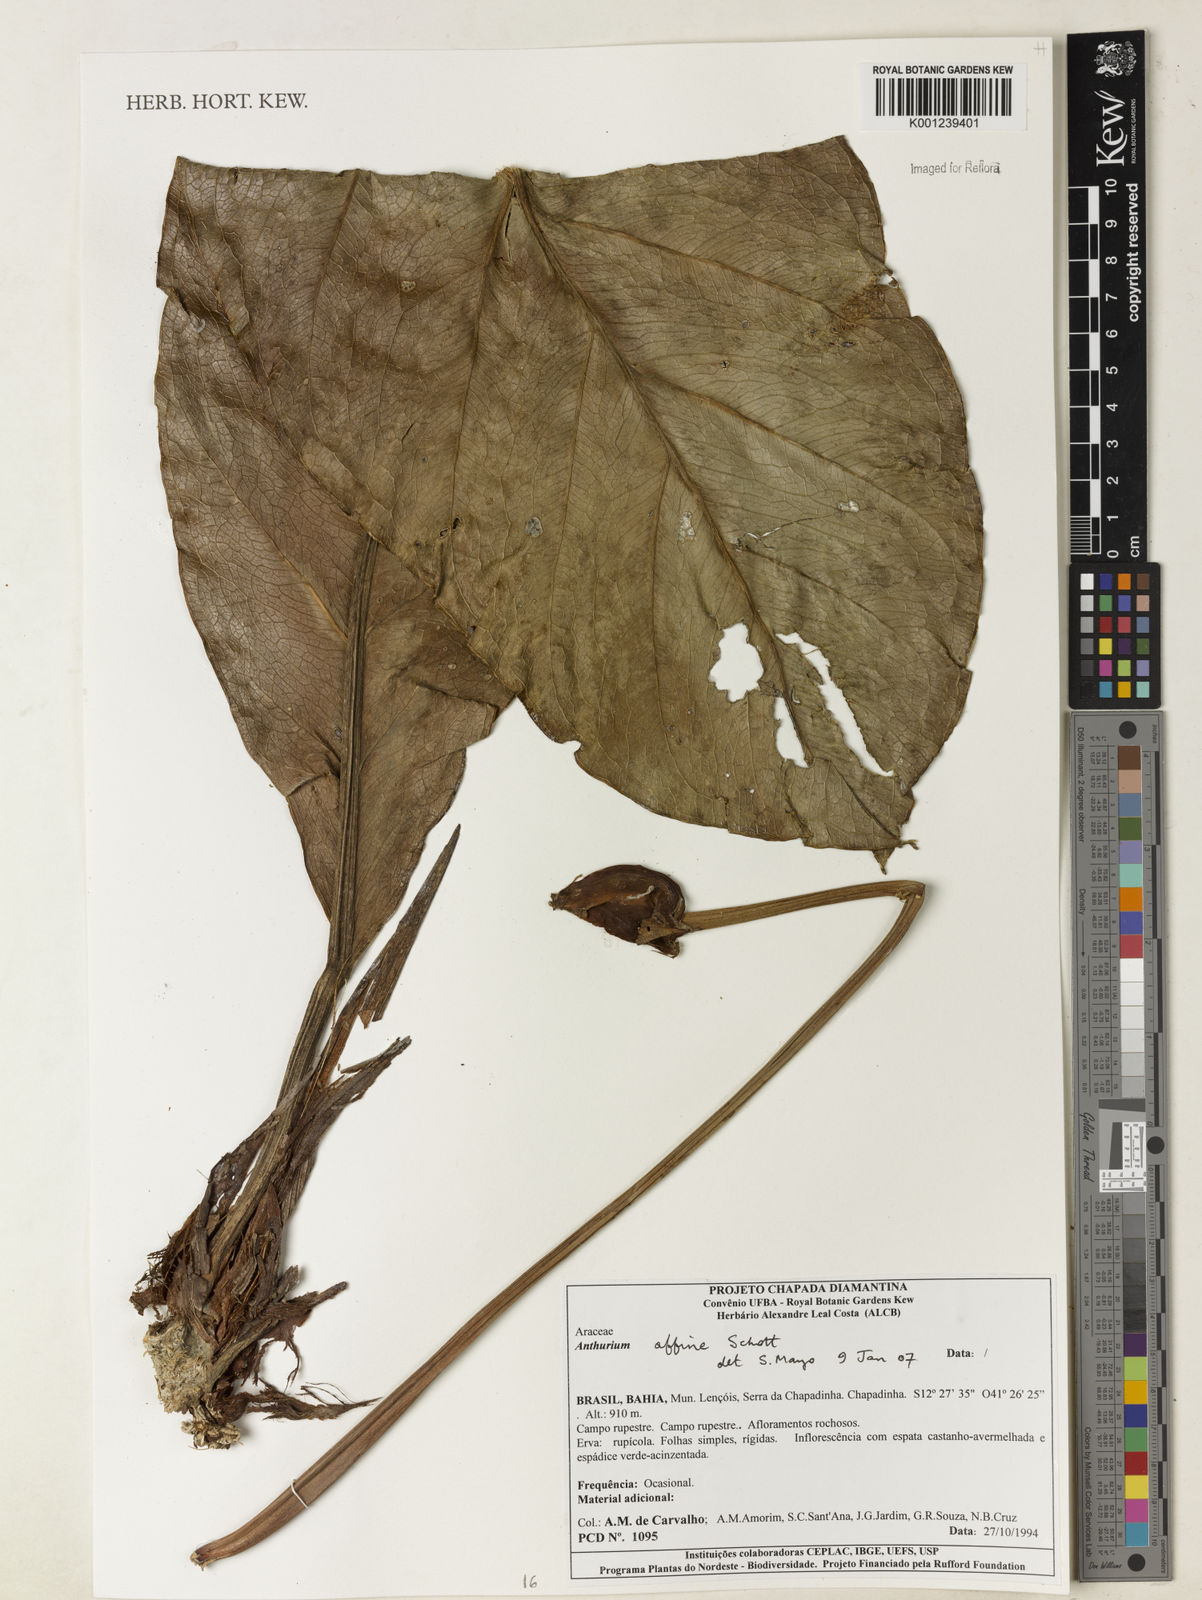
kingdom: Plantae
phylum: Tracheophyta
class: Liliopsida
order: Alismatales
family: Araceae
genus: Anthurium
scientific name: Anthurium affine
